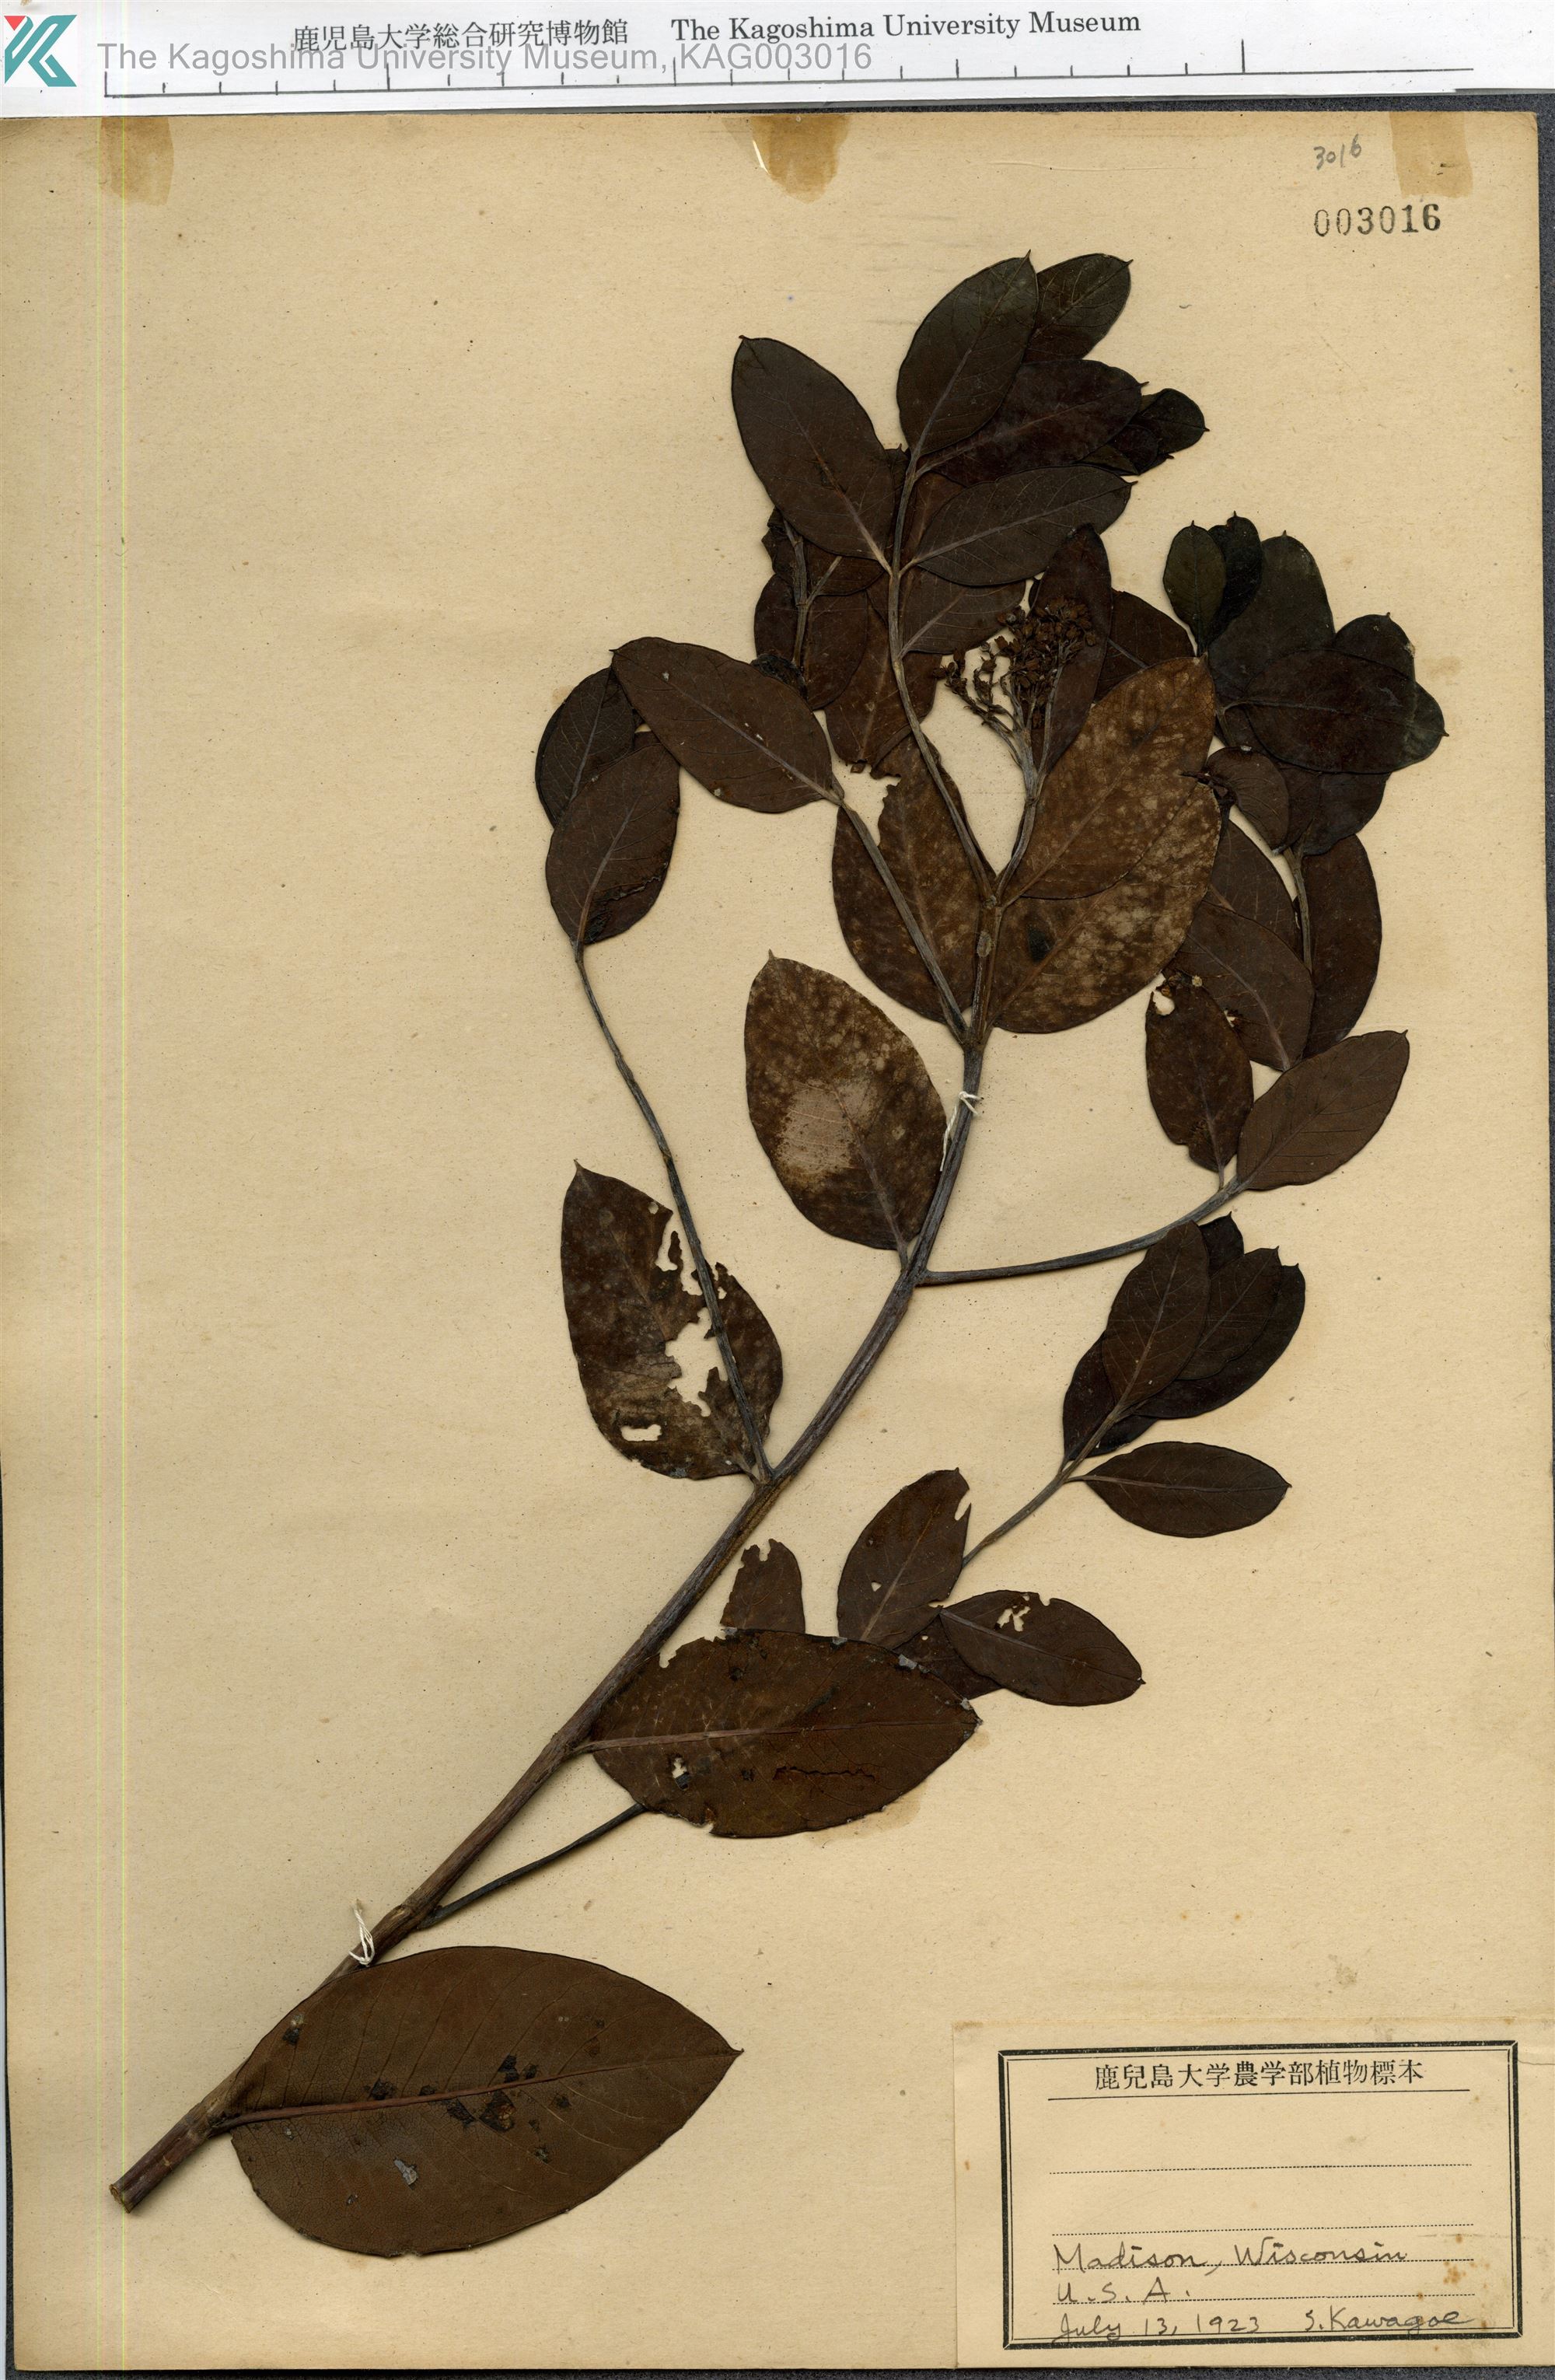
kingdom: Plantae
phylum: Tracheophyta
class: Magnoliopsida
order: Gentianales
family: Apocynaceae
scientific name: Apocynaceae
